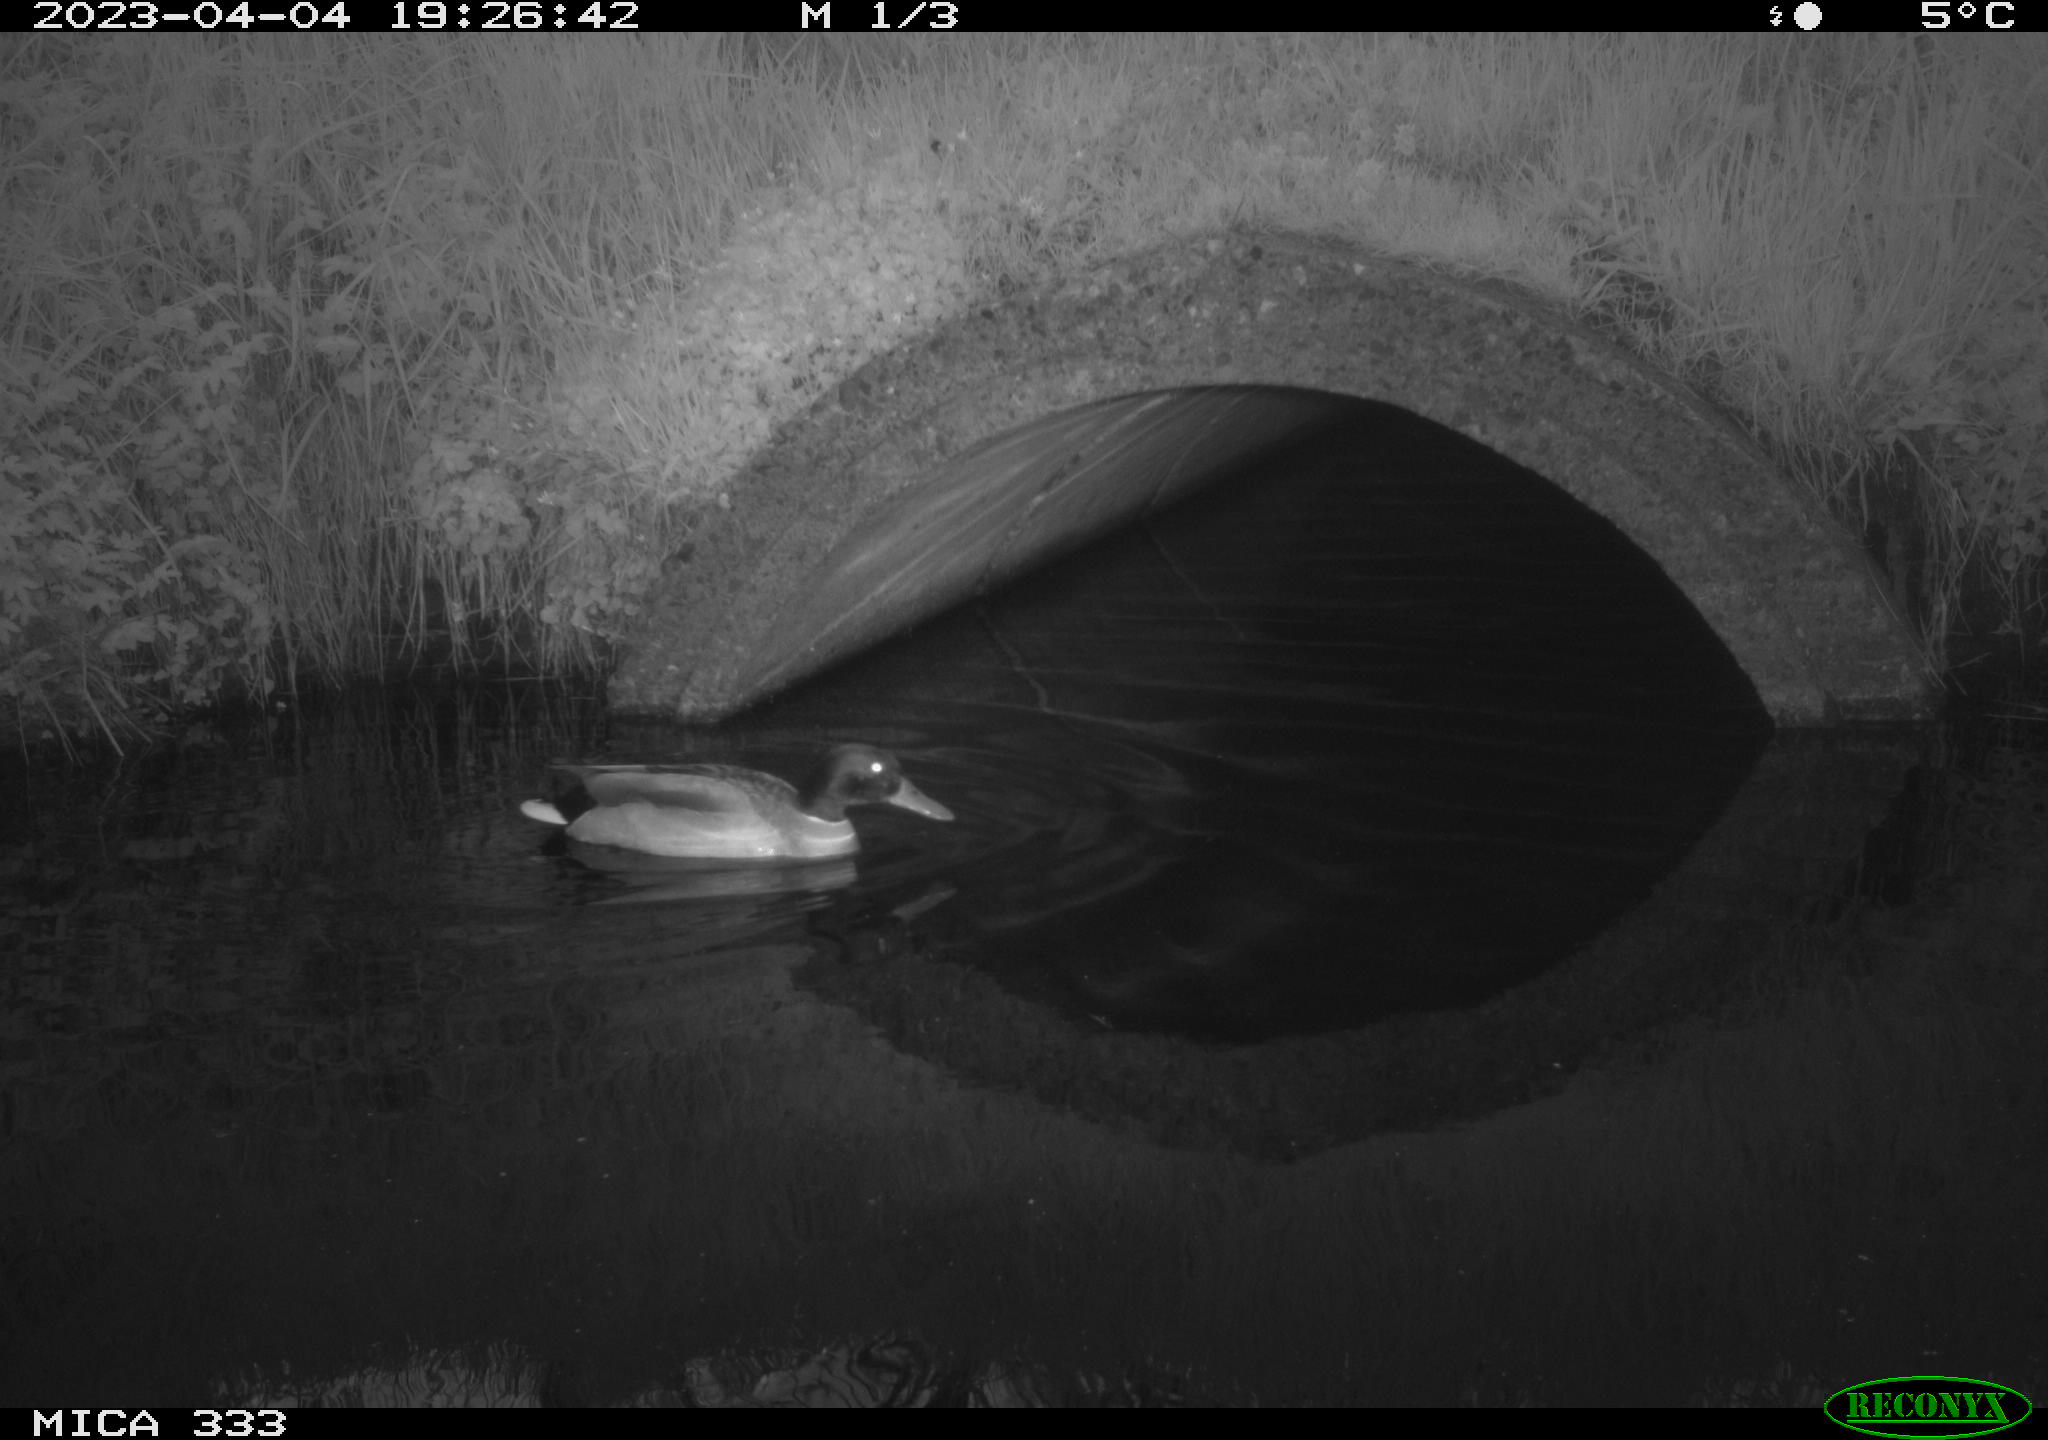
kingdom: Animalia
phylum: Chordata
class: Aves
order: Anseriformes
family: Anatidae
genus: Anas
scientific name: Anas
